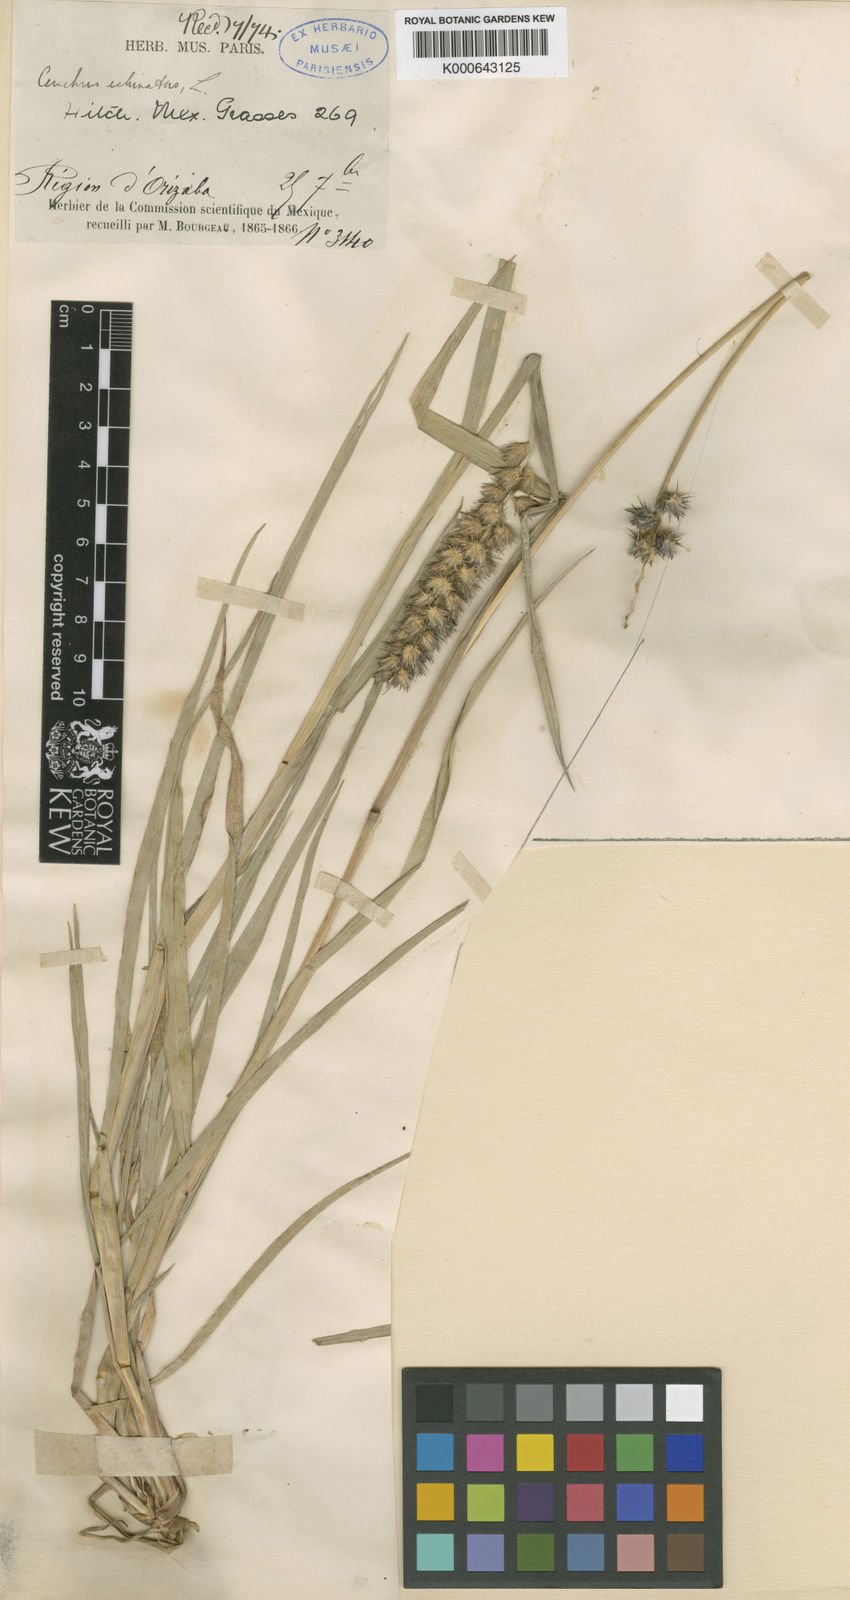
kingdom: Plantae
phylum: Tracheophyta
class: Liliopsida
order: Poales
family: Poaceae
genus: Cenchrus
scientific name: Cenchrus echinatus
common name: Southern sandbur
